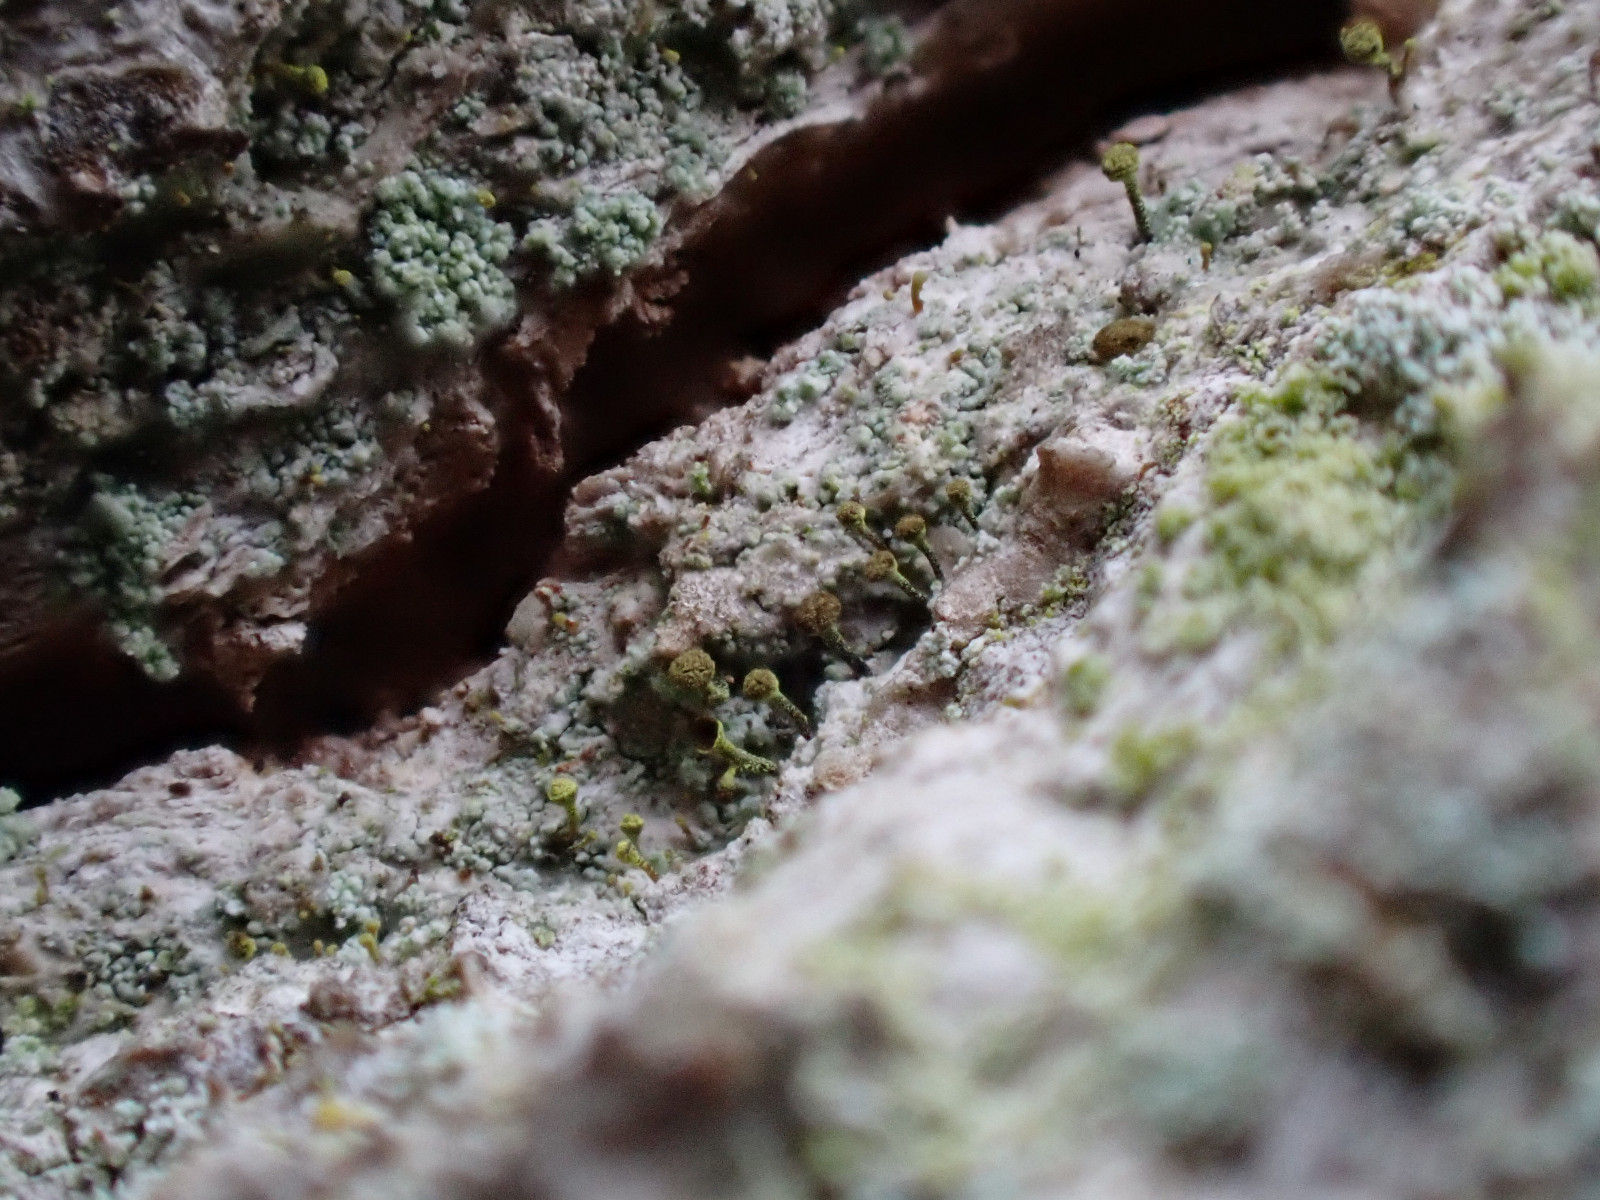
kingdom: Fungi
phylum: Ascomycota
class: Coniocybomycetes
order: Coniocybales
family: Coniocybaceae
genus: Chaenotheca
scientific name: Chaenotheca chlorella
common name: grønlig knappenålslav
